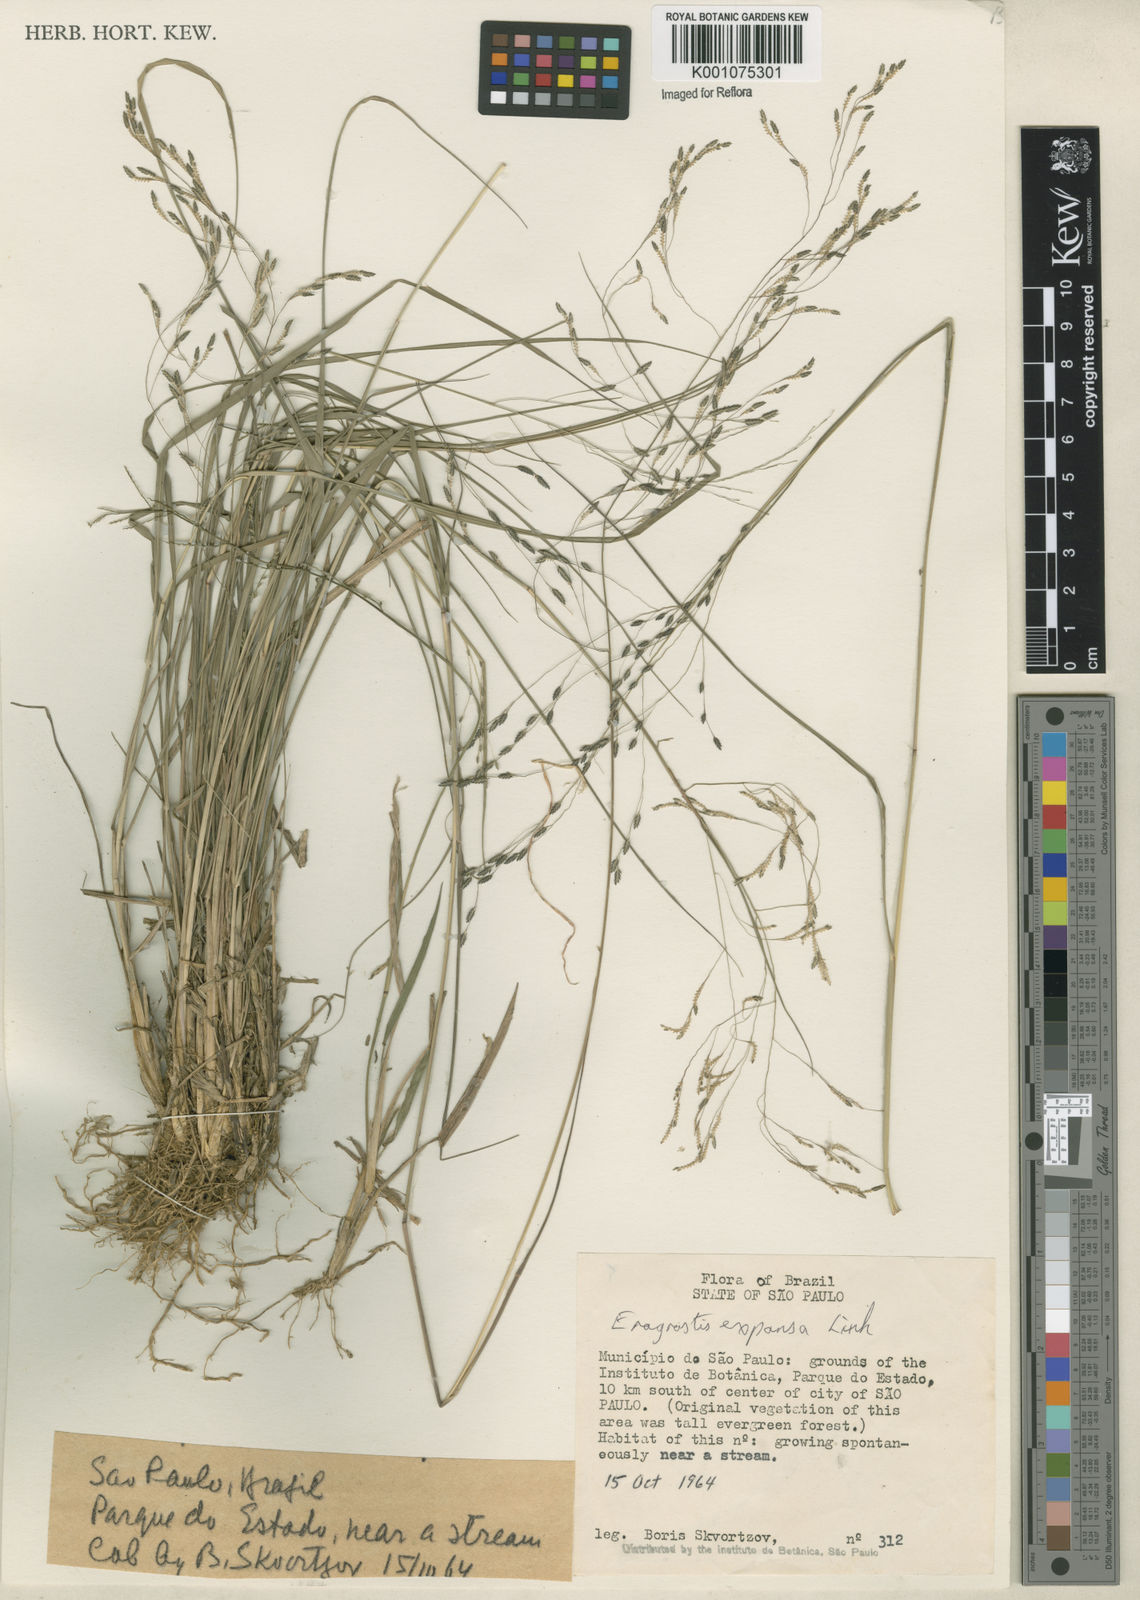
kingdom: Plantae
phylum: Tracheophyta
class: Liliopsida
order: Poales
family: Poaceae
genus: Eragrostis
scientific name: Eragrostis bahiensis
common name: Bahia lovegrass
